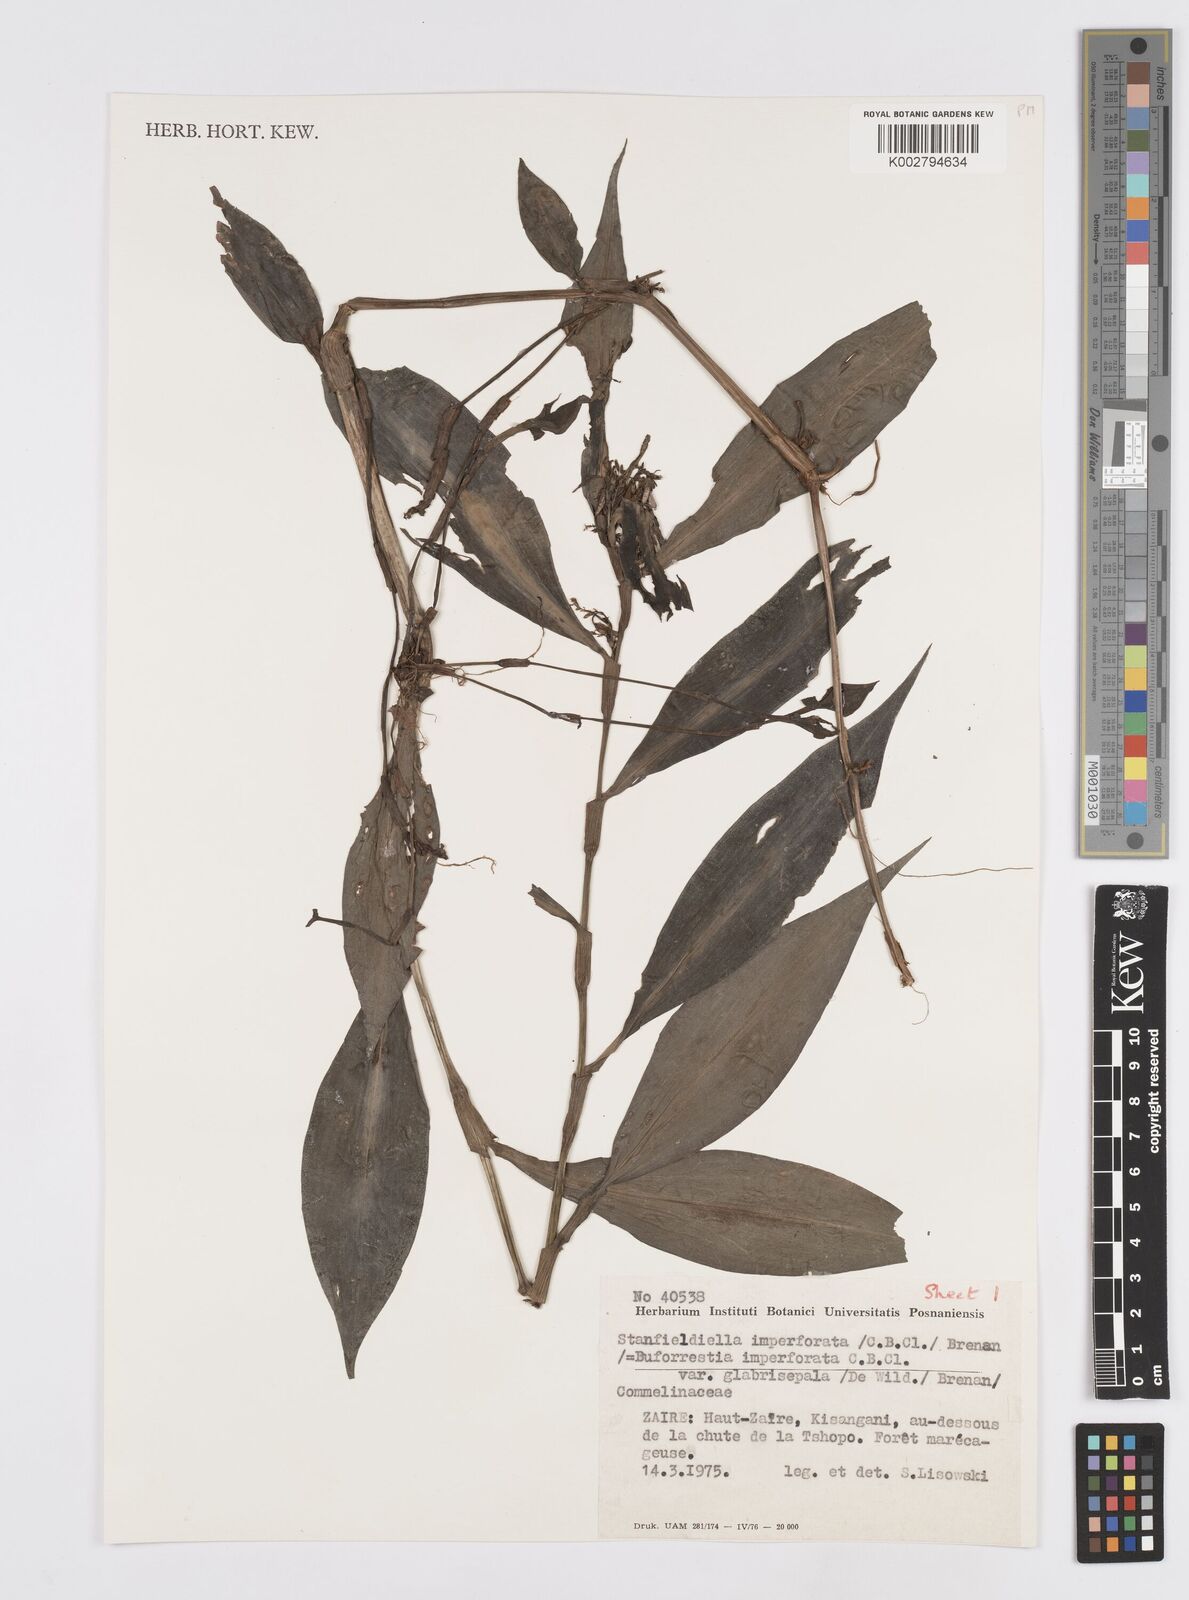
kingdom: Plantae
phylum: Tracheophyta
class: Liliopsida
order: Commelinales
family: Commelinaceae
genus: Stanfieldiella
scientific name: Stanfieldiella imperforata
